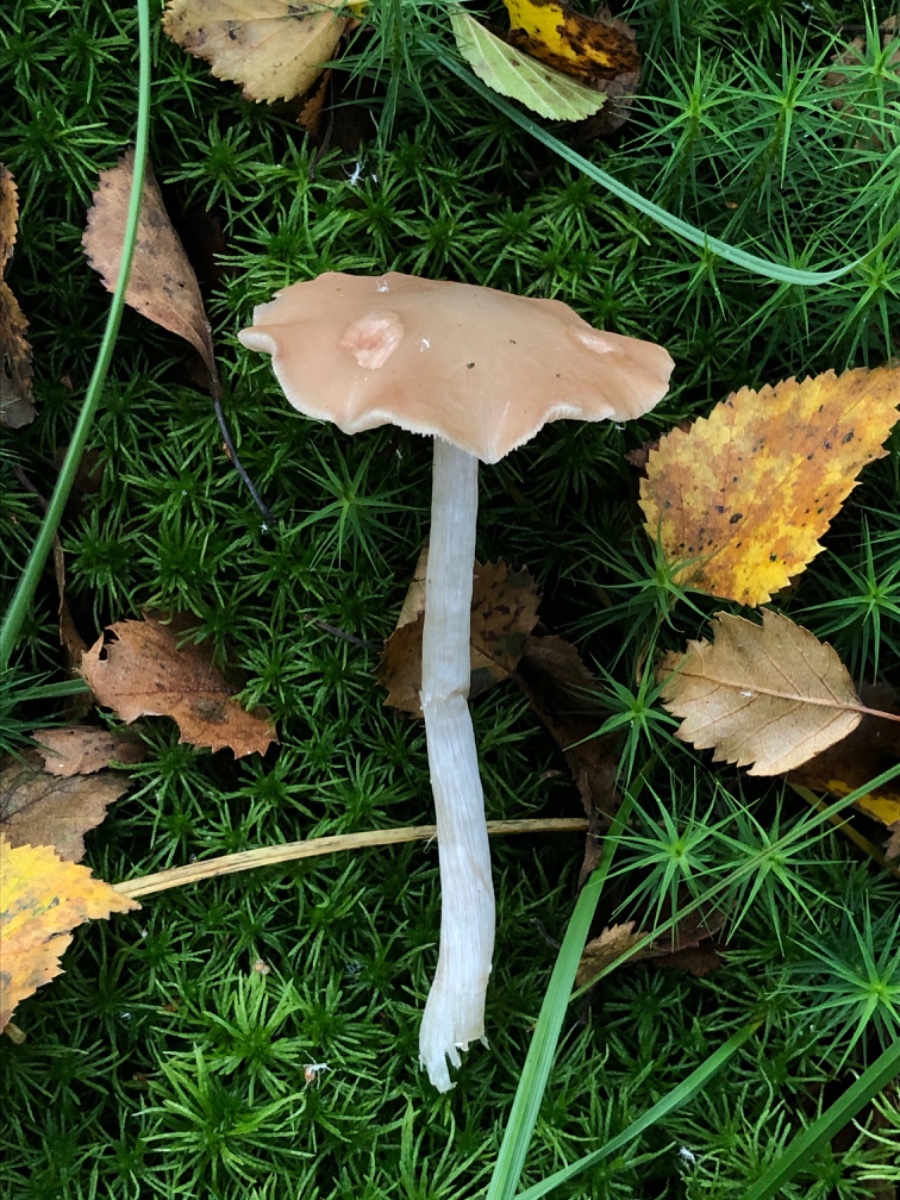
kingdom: Fungi
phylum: Basidiomycota
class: Agaricomycetes
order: Agaricales
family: Entolomataceae
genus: Entoloma
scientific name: Entoloma sericatum
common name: rank rødblad
